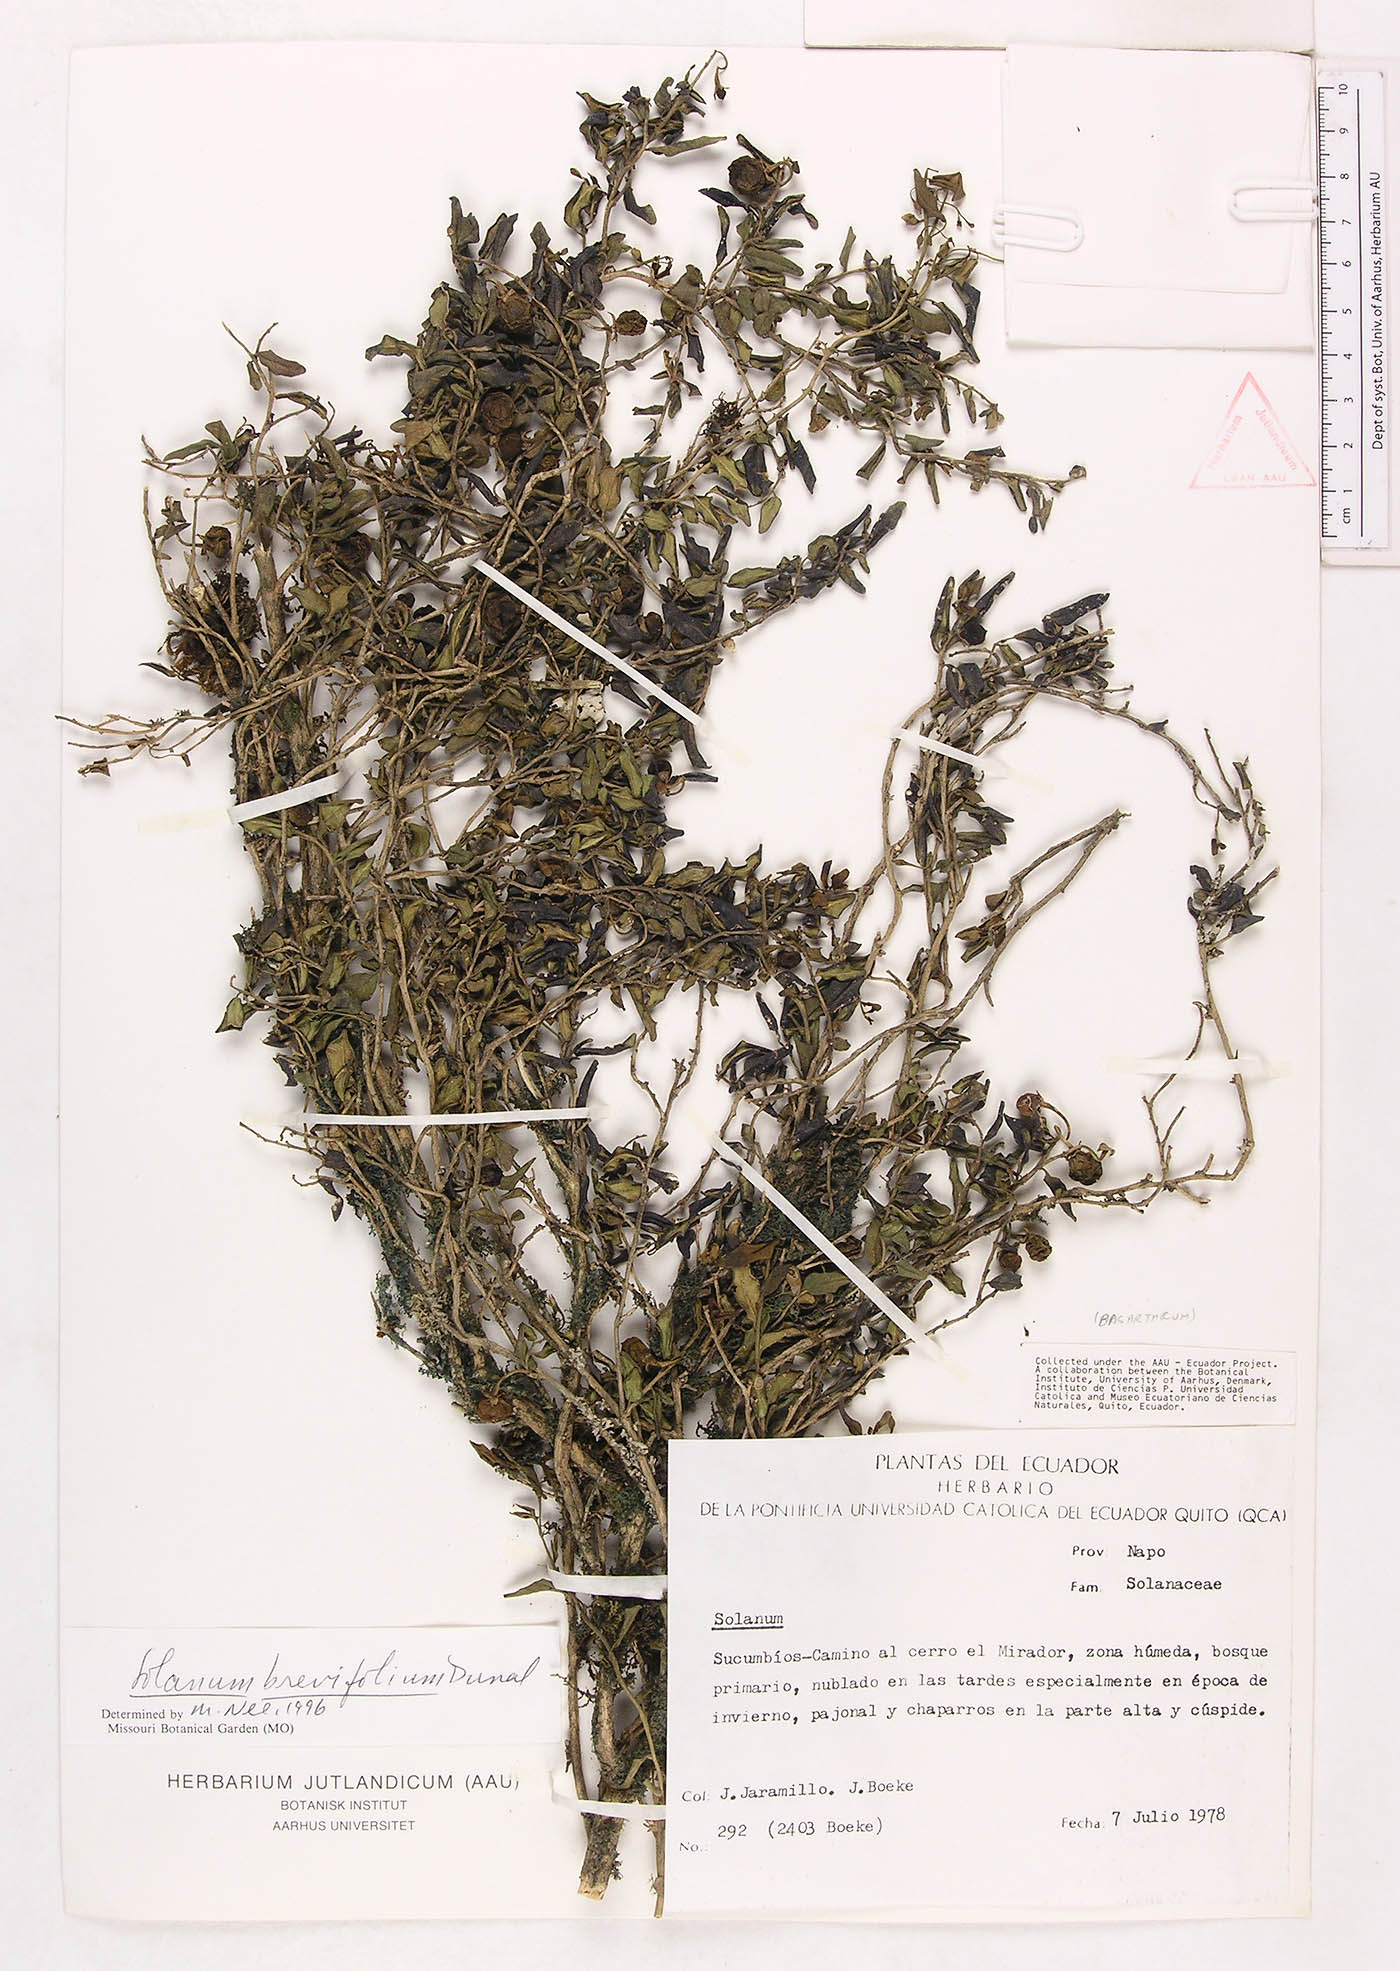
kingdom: Plantae
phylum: Tracheophyta
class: Magnoliopsida
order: Solanales
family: Solanaceae
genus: Solanum
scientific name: Solanum brevifolium
